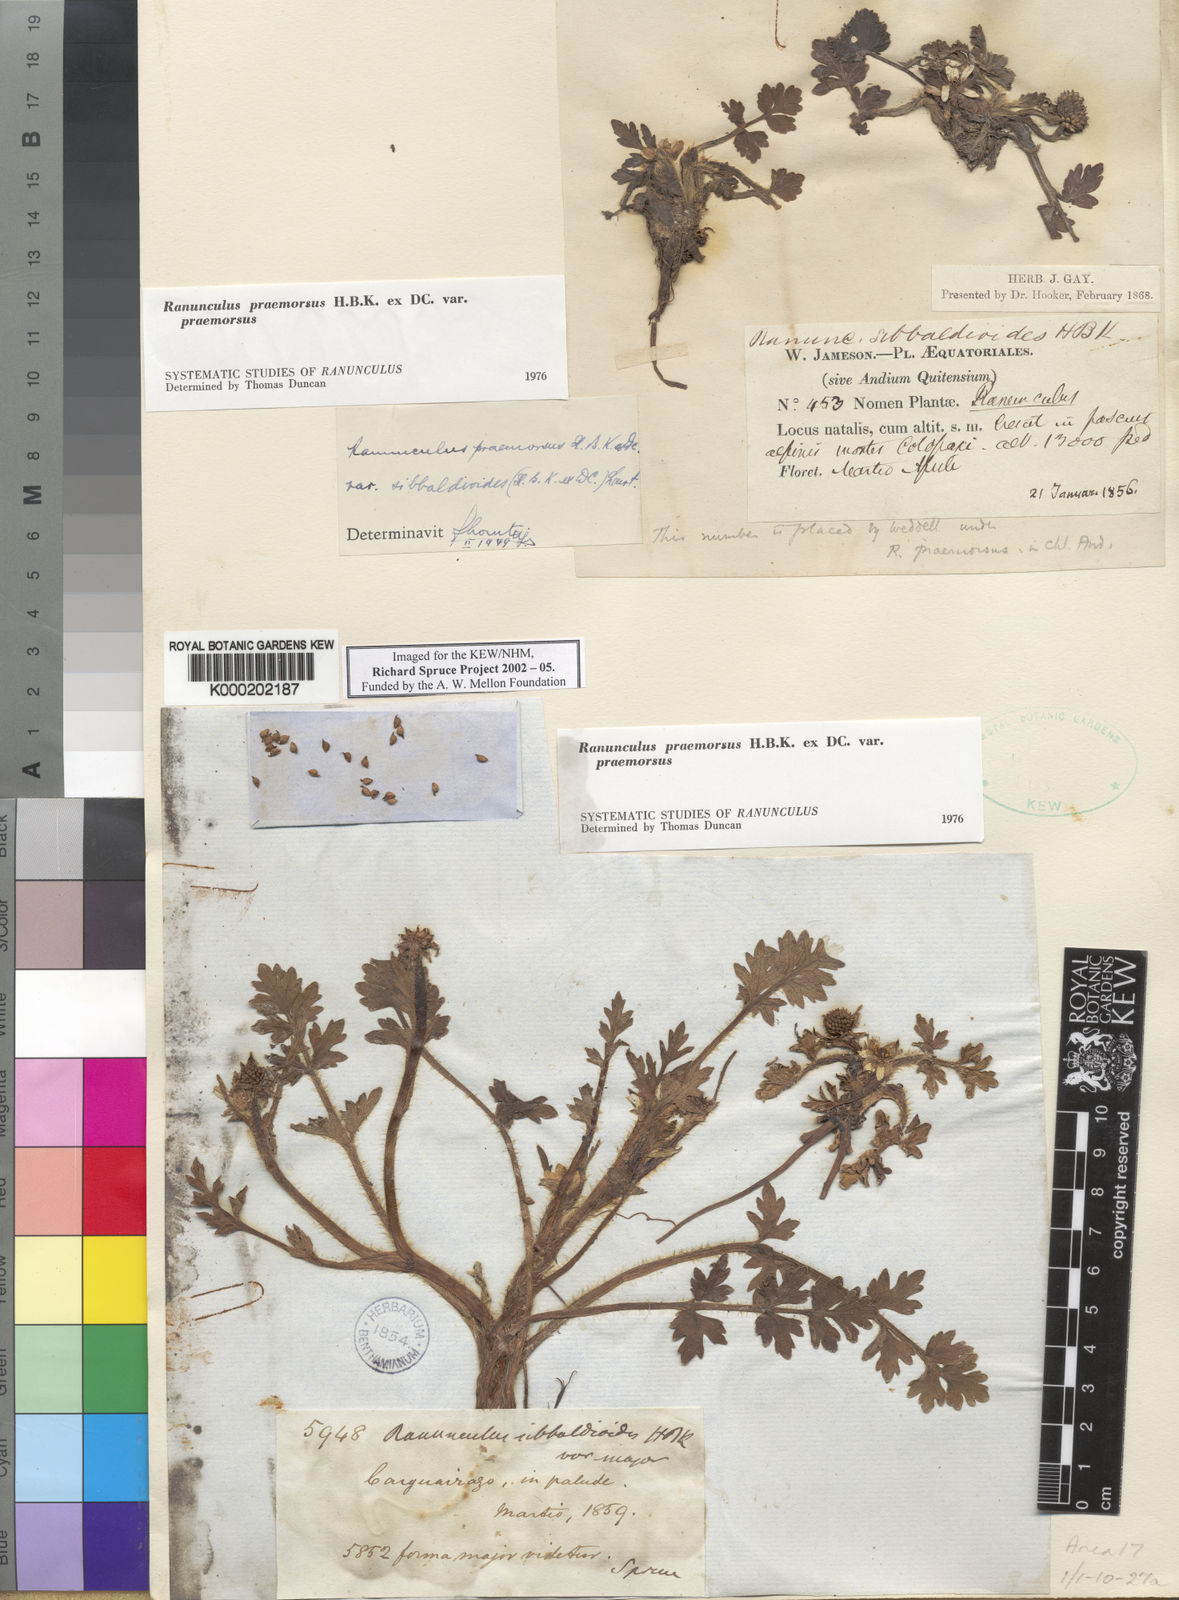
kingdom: Plantae
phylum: Tracheophyta
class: Magnoliopsida
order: Ranunculales
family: Ranunculaceae
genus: Ranunculus
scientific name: Ranunculus praemorsus
